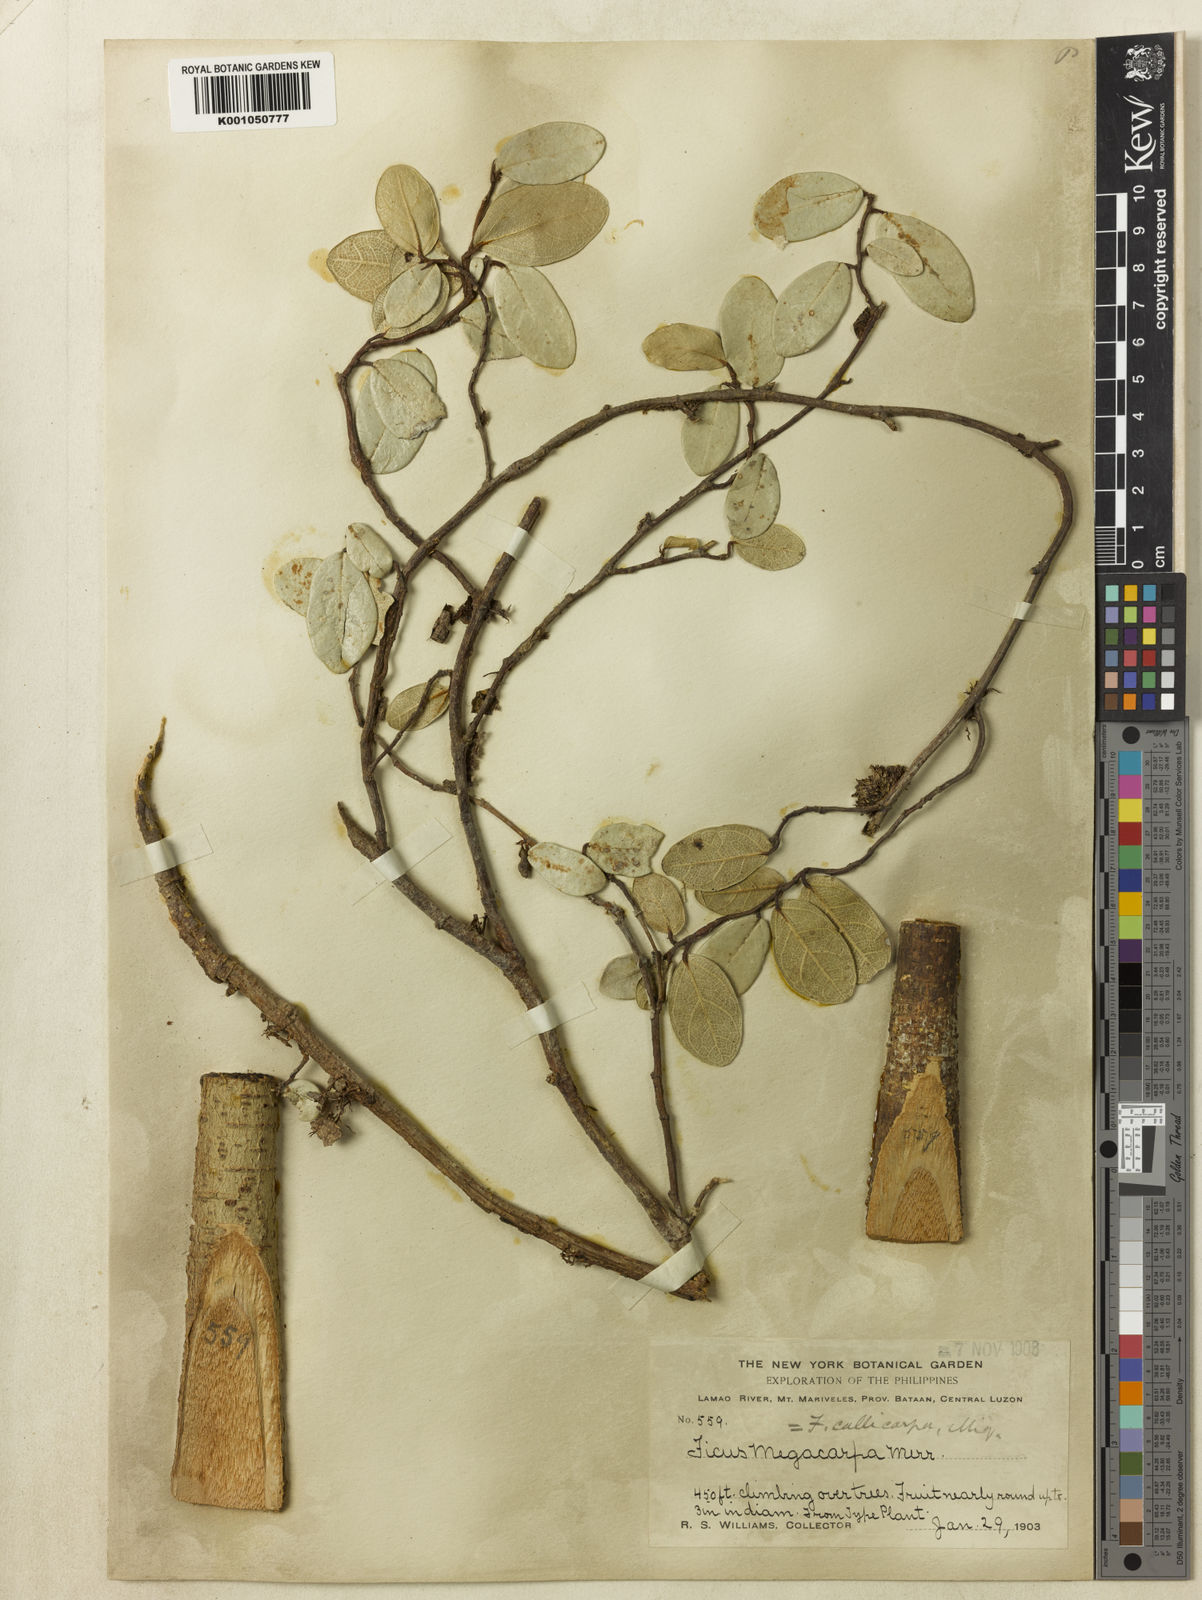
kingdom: Plantae
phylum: Tracheophyta
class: Magnoliopsida
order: Rosales
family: Moraceae
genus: Ficus
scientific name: Ficus
